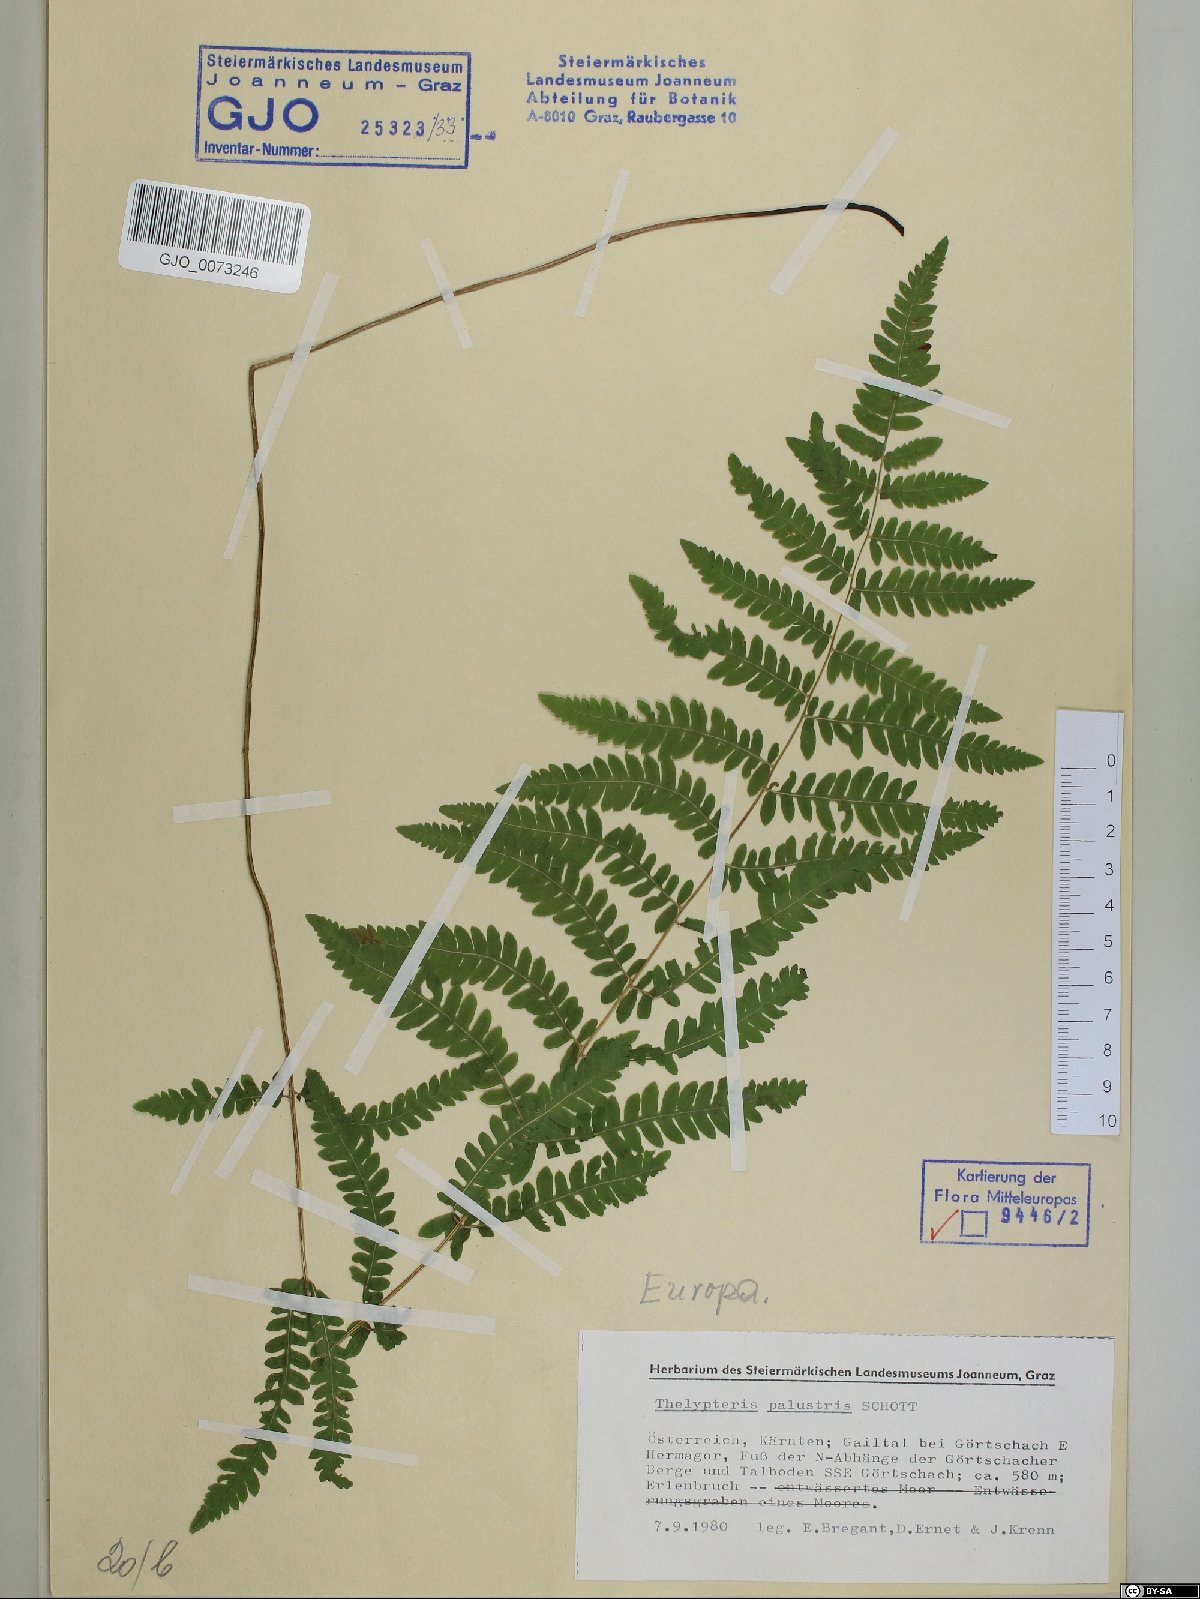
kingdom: Plantae
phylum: Tracheophyta
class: Polypodiopsida
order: Polypodiales
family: Thelypteridaceae
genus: Thelypteris
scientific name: Thelypteris palustris
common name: Marsh fern
